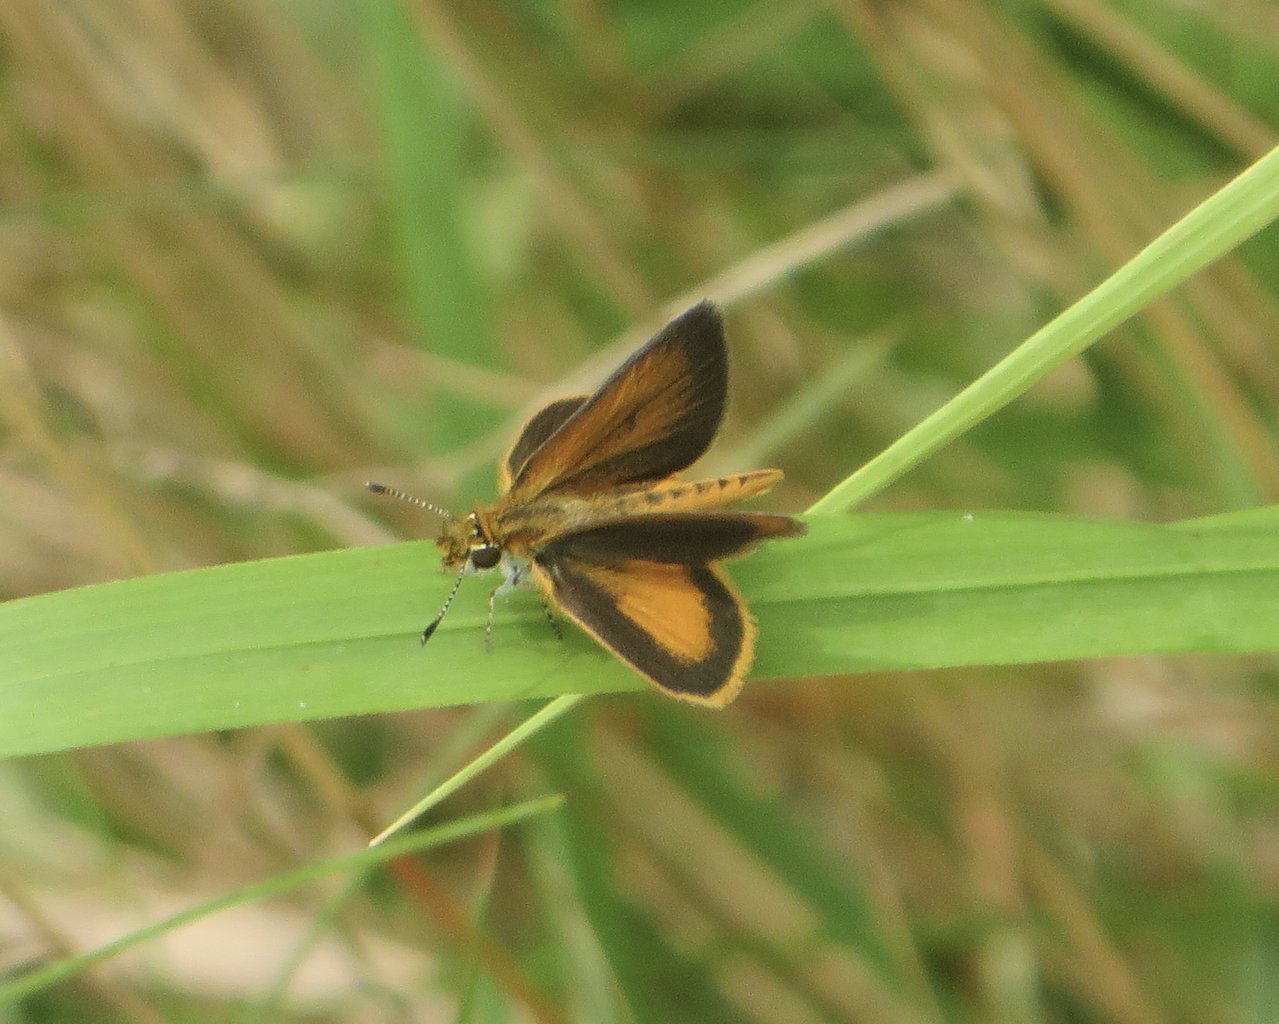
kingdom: Animalia
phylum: Arthropoda
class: Insecta
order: Lepidoptera
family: Hesperiidae
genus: Ancyloxypha
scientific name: Ancyloxypha numitor
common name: Least Skipper
